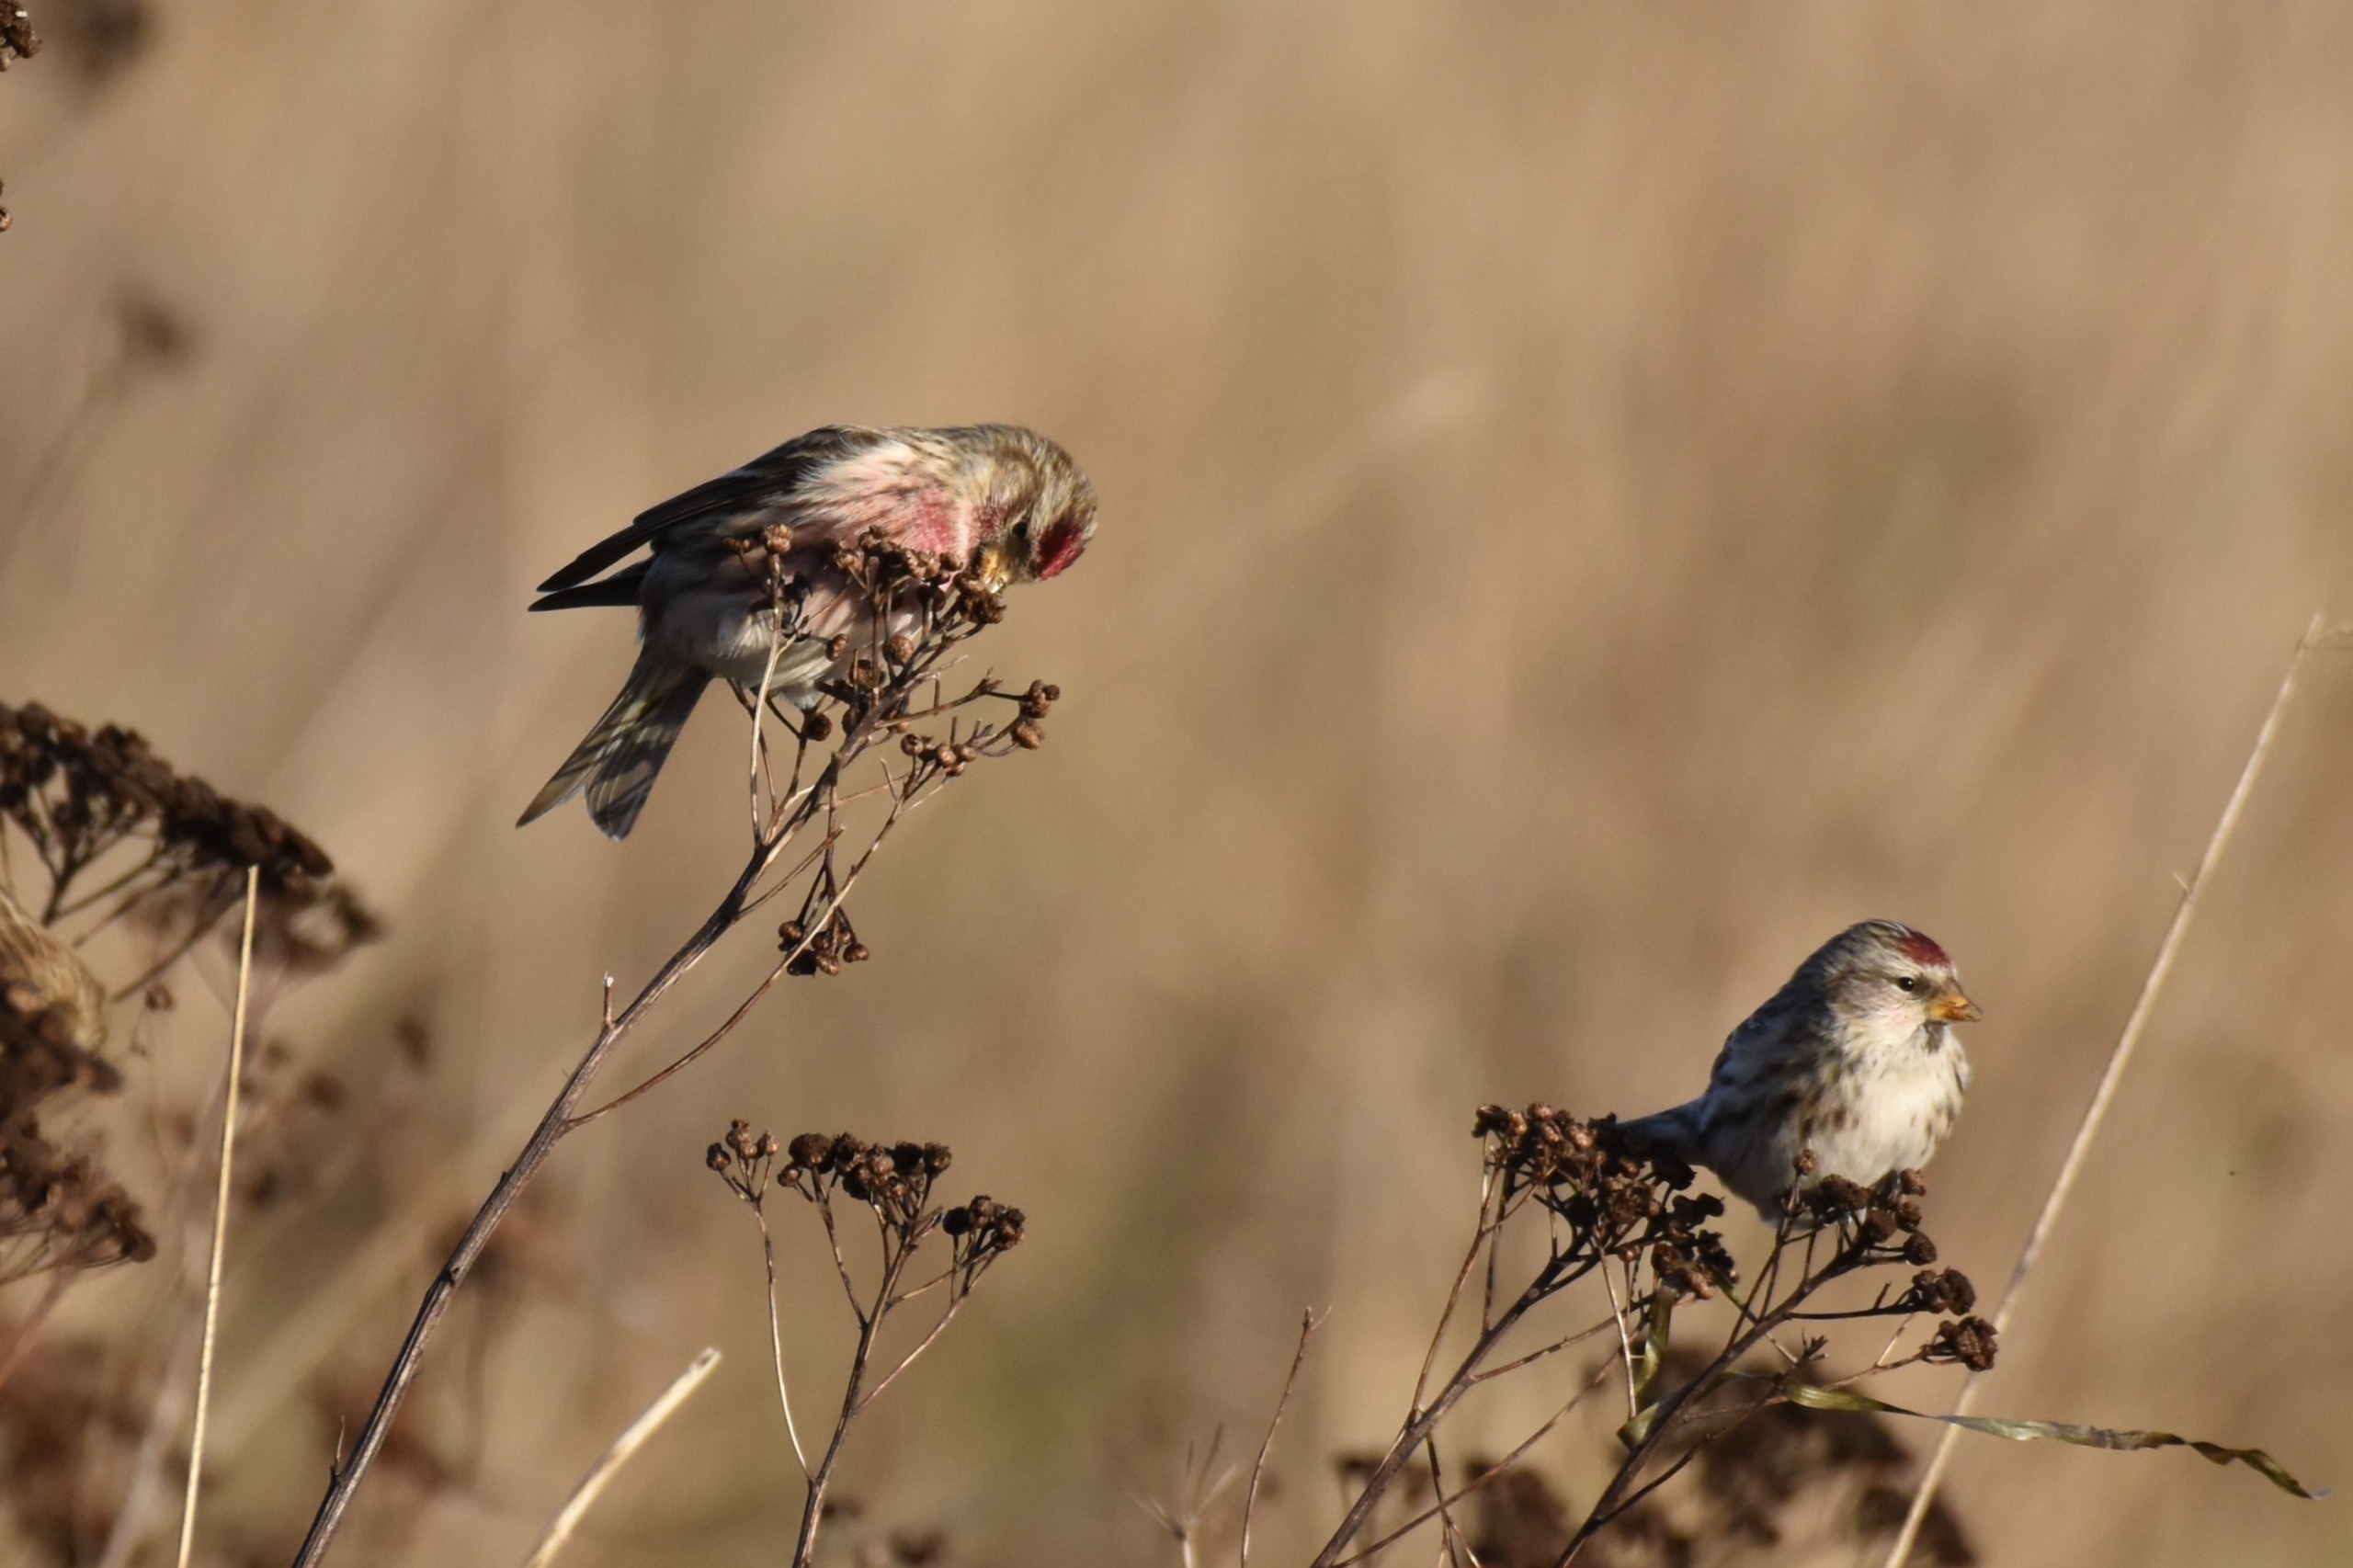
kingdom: Animalia
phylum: Chordata
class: Aves
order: Passeriformes
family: Fringillidae
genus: Acanthis
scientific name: Acanthis flammea
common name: Nordlig gråsisken
